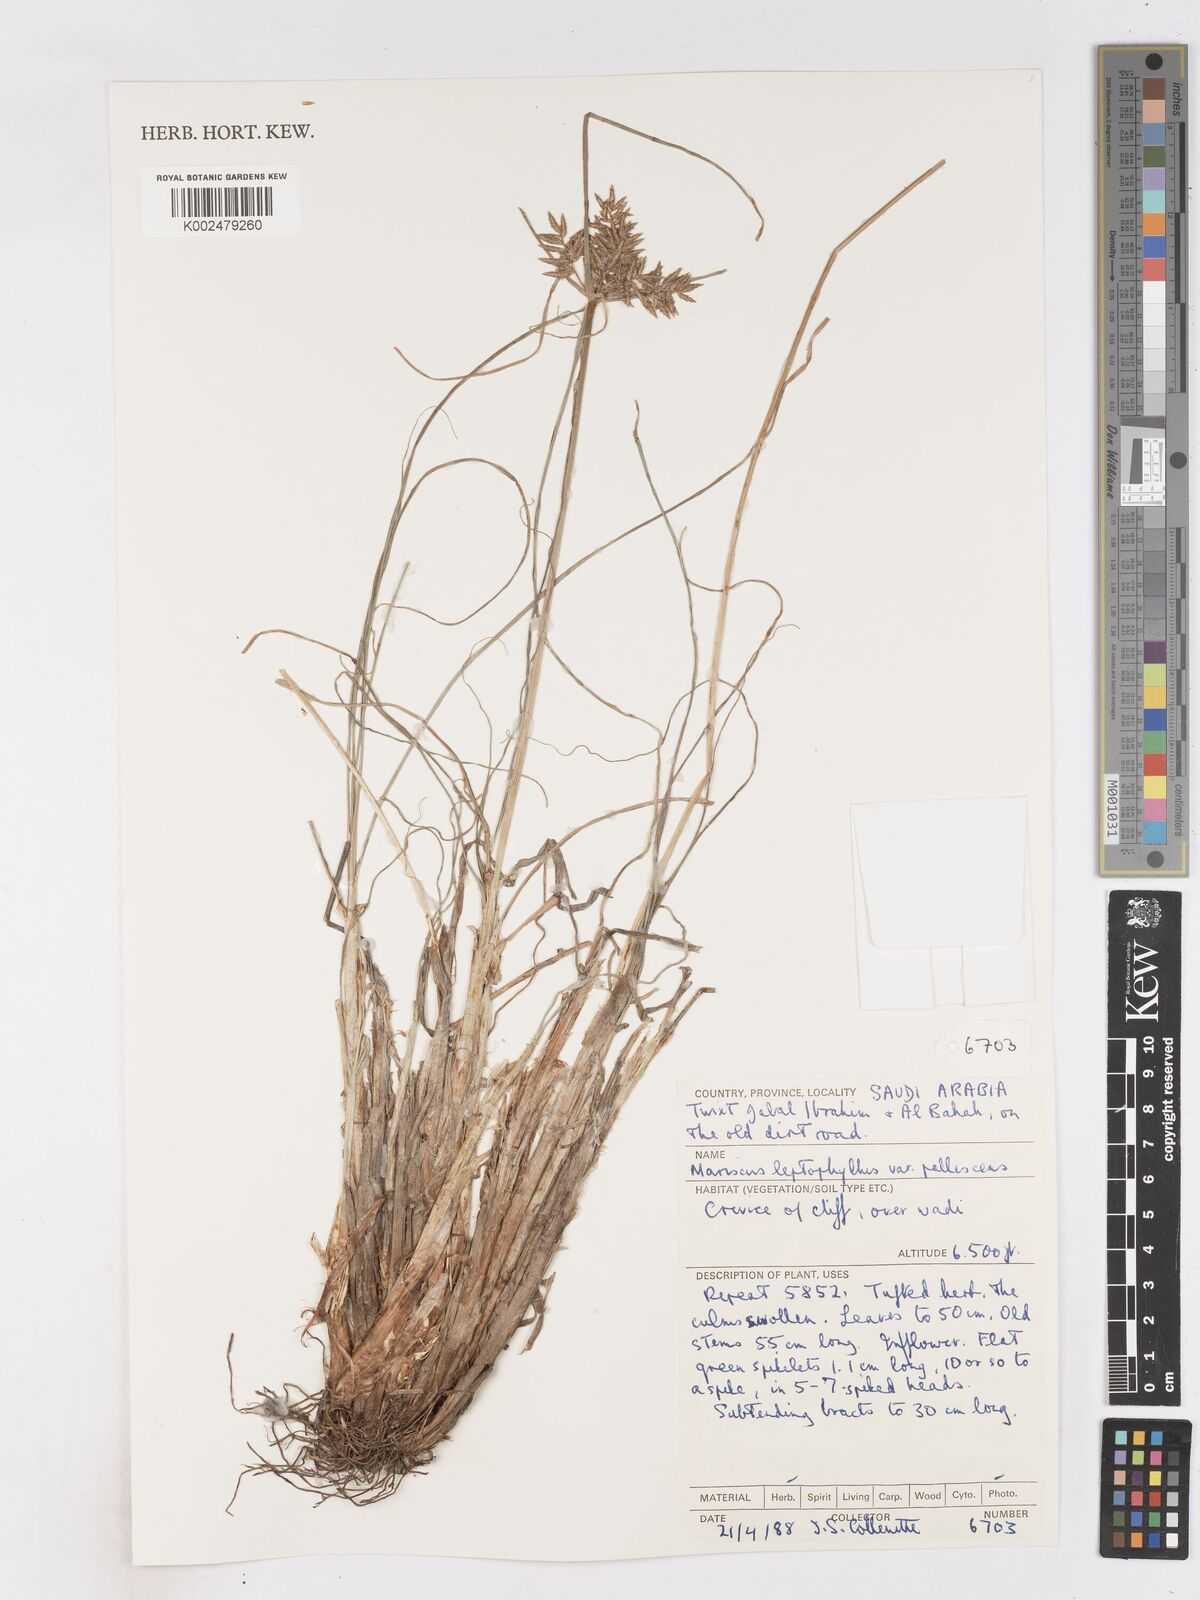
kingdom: Plantae
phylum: Tracheophyta
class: Liliopsida
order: Poales
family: Cyperaceae
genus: Cyperus
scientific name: Cyperus amauropus
